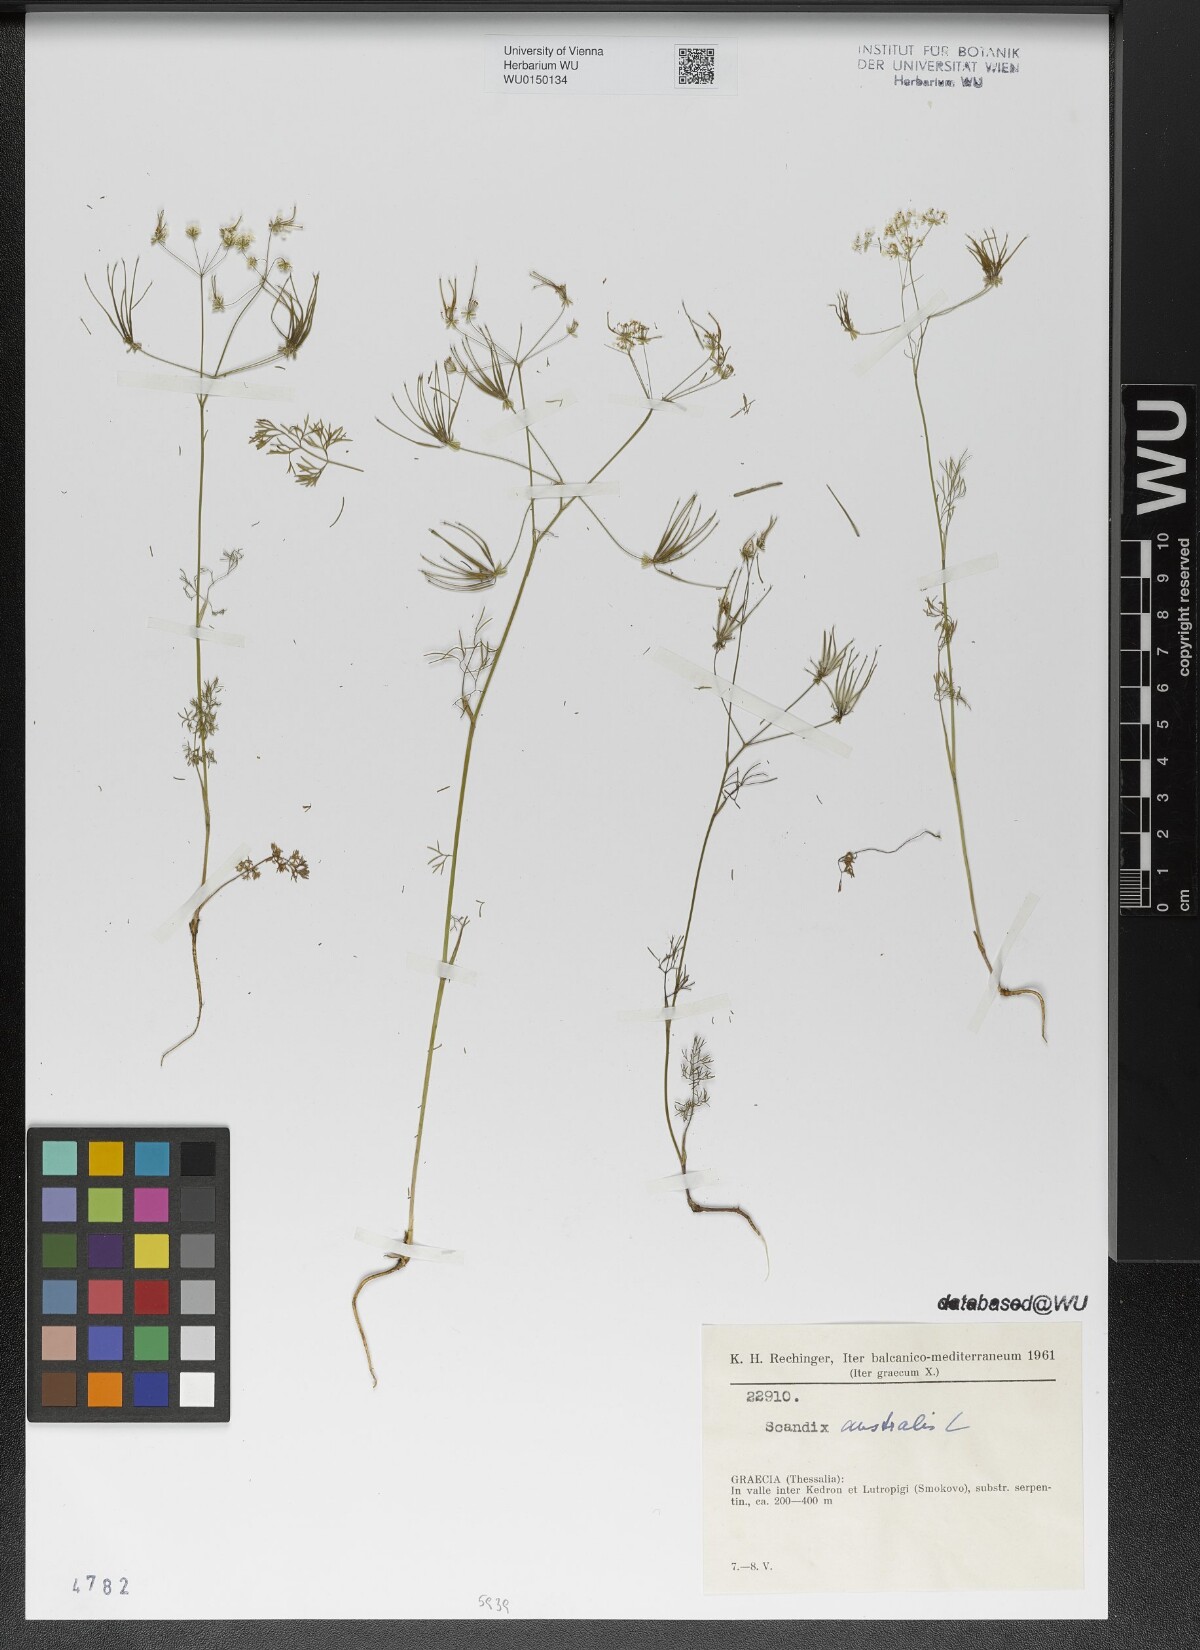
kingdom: Plantae
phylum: Tracheophyta
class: Magnoliopsida
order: Apiales
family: Apiaceae
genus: Scandix
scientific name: Scandix australis
